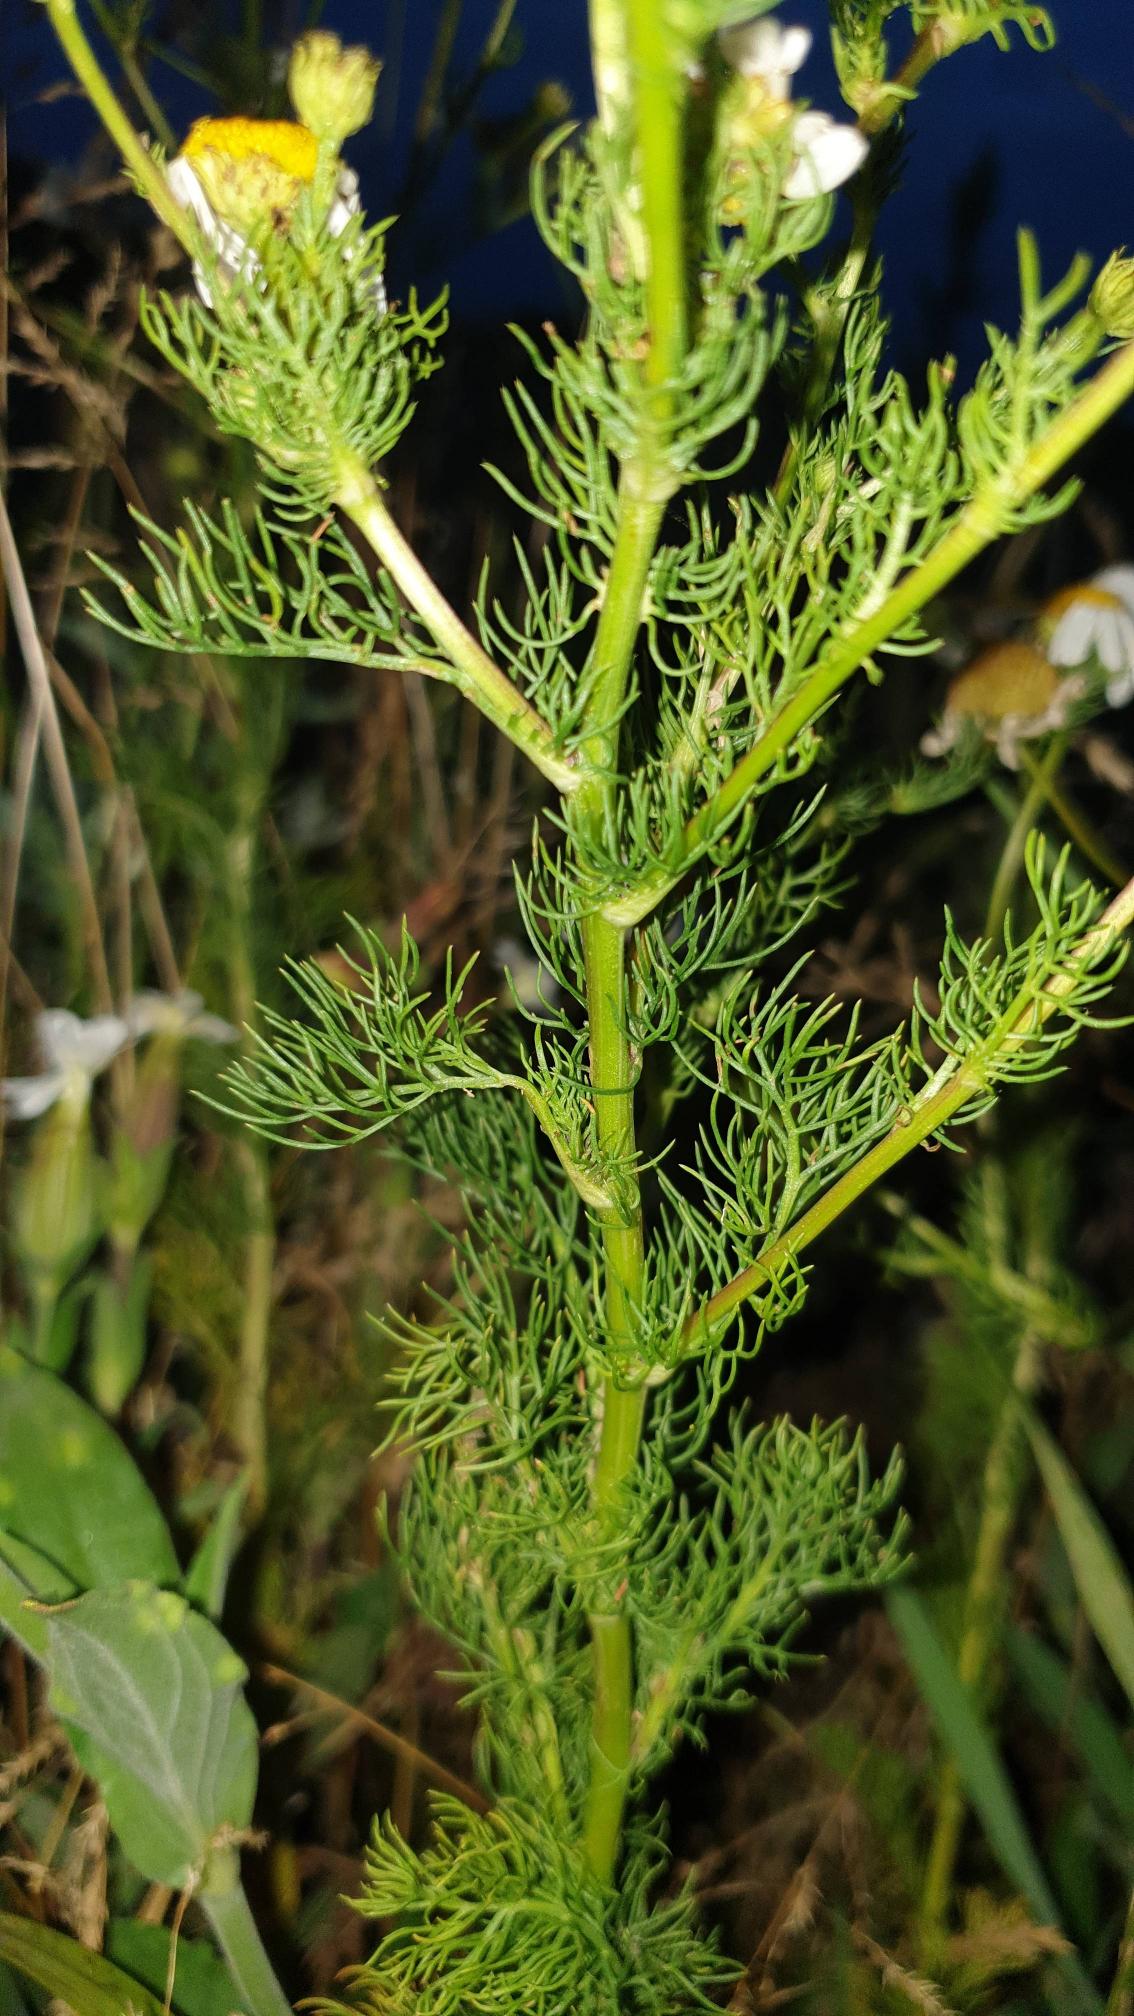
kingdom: Plantae
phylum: Tracheophyta
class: Magnoliopsida
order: Asterales
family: Asteraceae
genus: Tripleurospermum
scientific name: Tripleurospermum inodorum
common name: Lugtløs kamille
